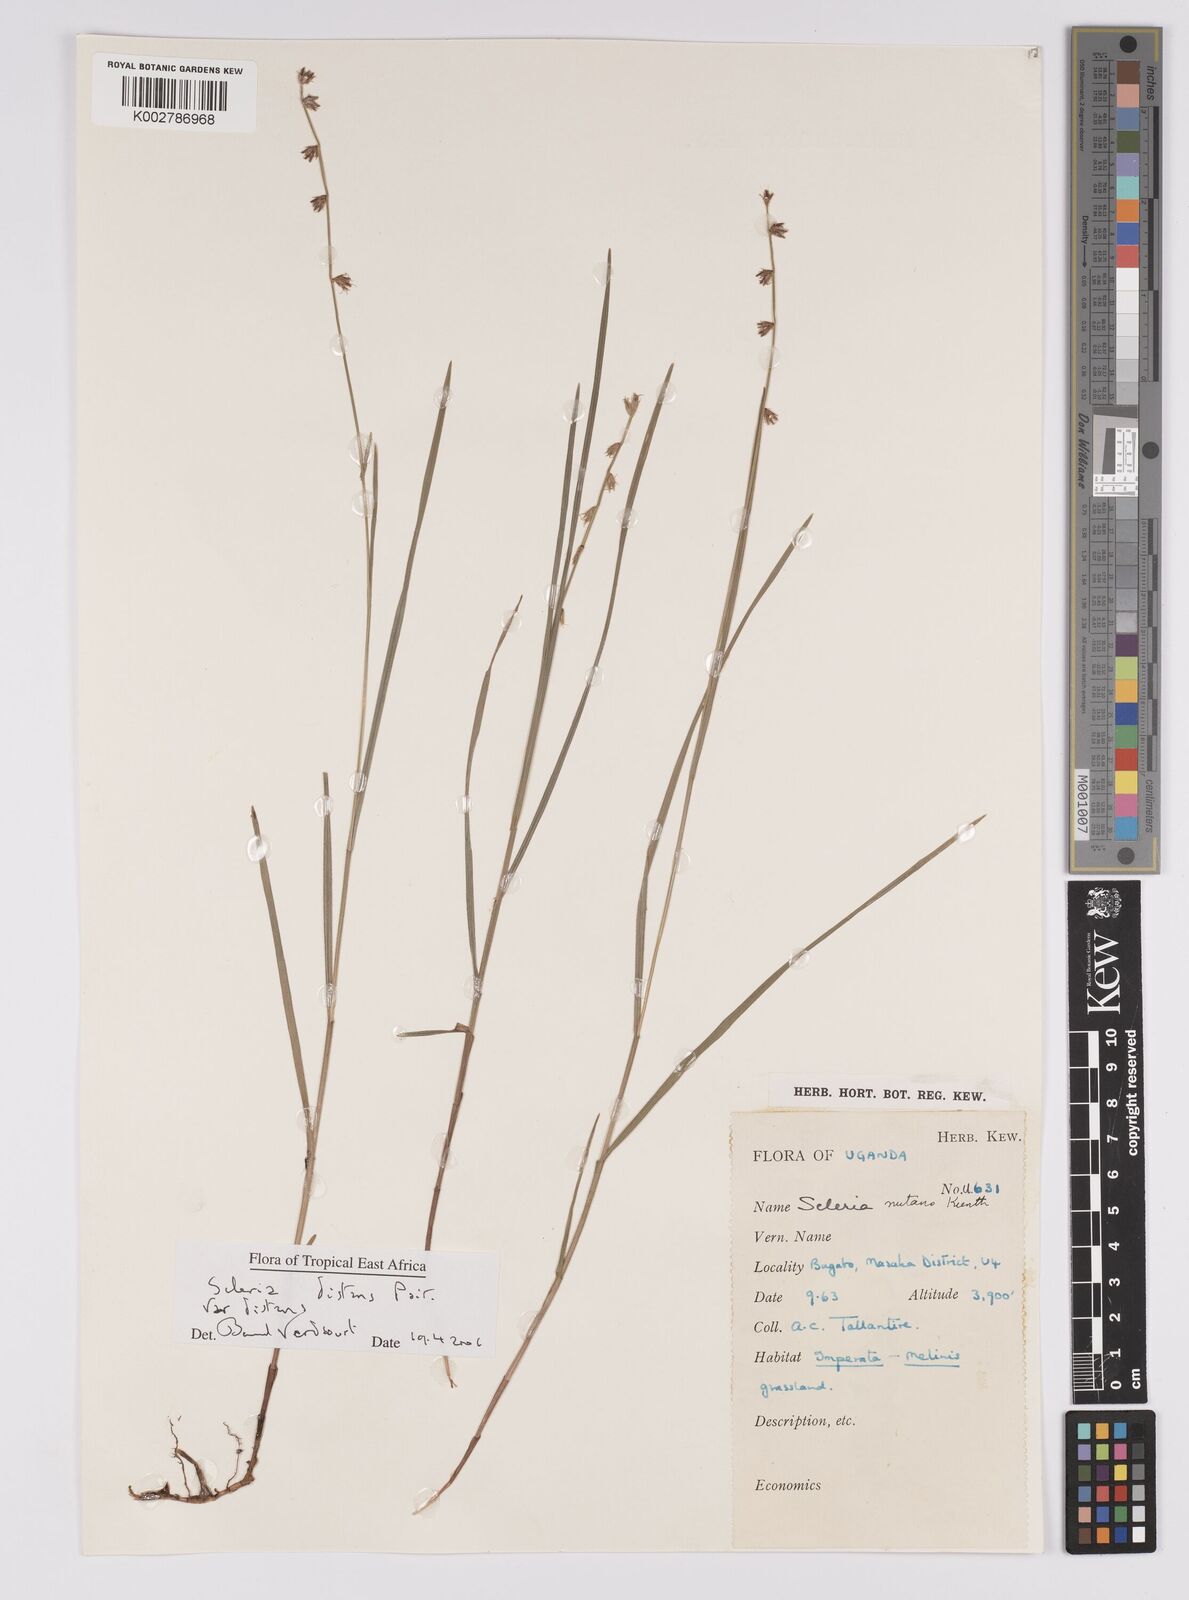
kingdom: Plantae
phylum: Tracheophyta
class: Liliopsida
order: Poales
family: Cyperaceae
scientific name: Cyperaceae
